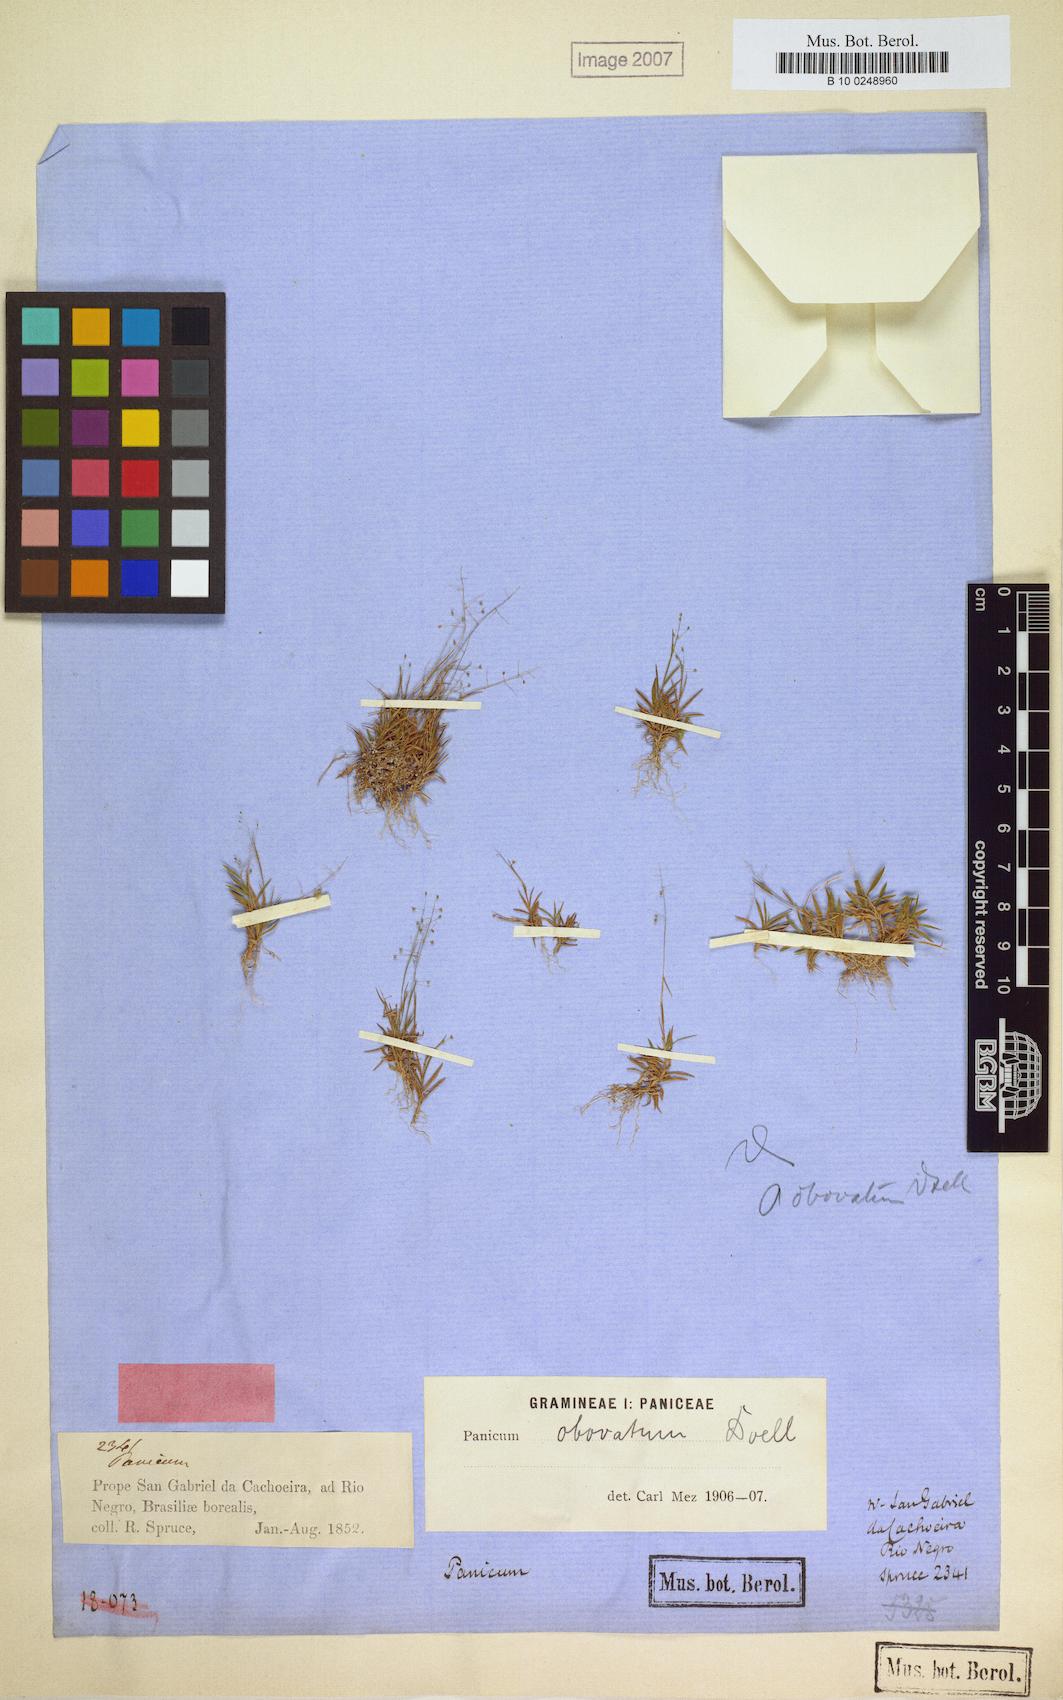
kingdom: Plantae
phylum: Tracheophyta
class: Liliopsida
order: Poales
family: Poaceae
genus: Trichanthecium
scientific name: Trichanthecium polycomum
